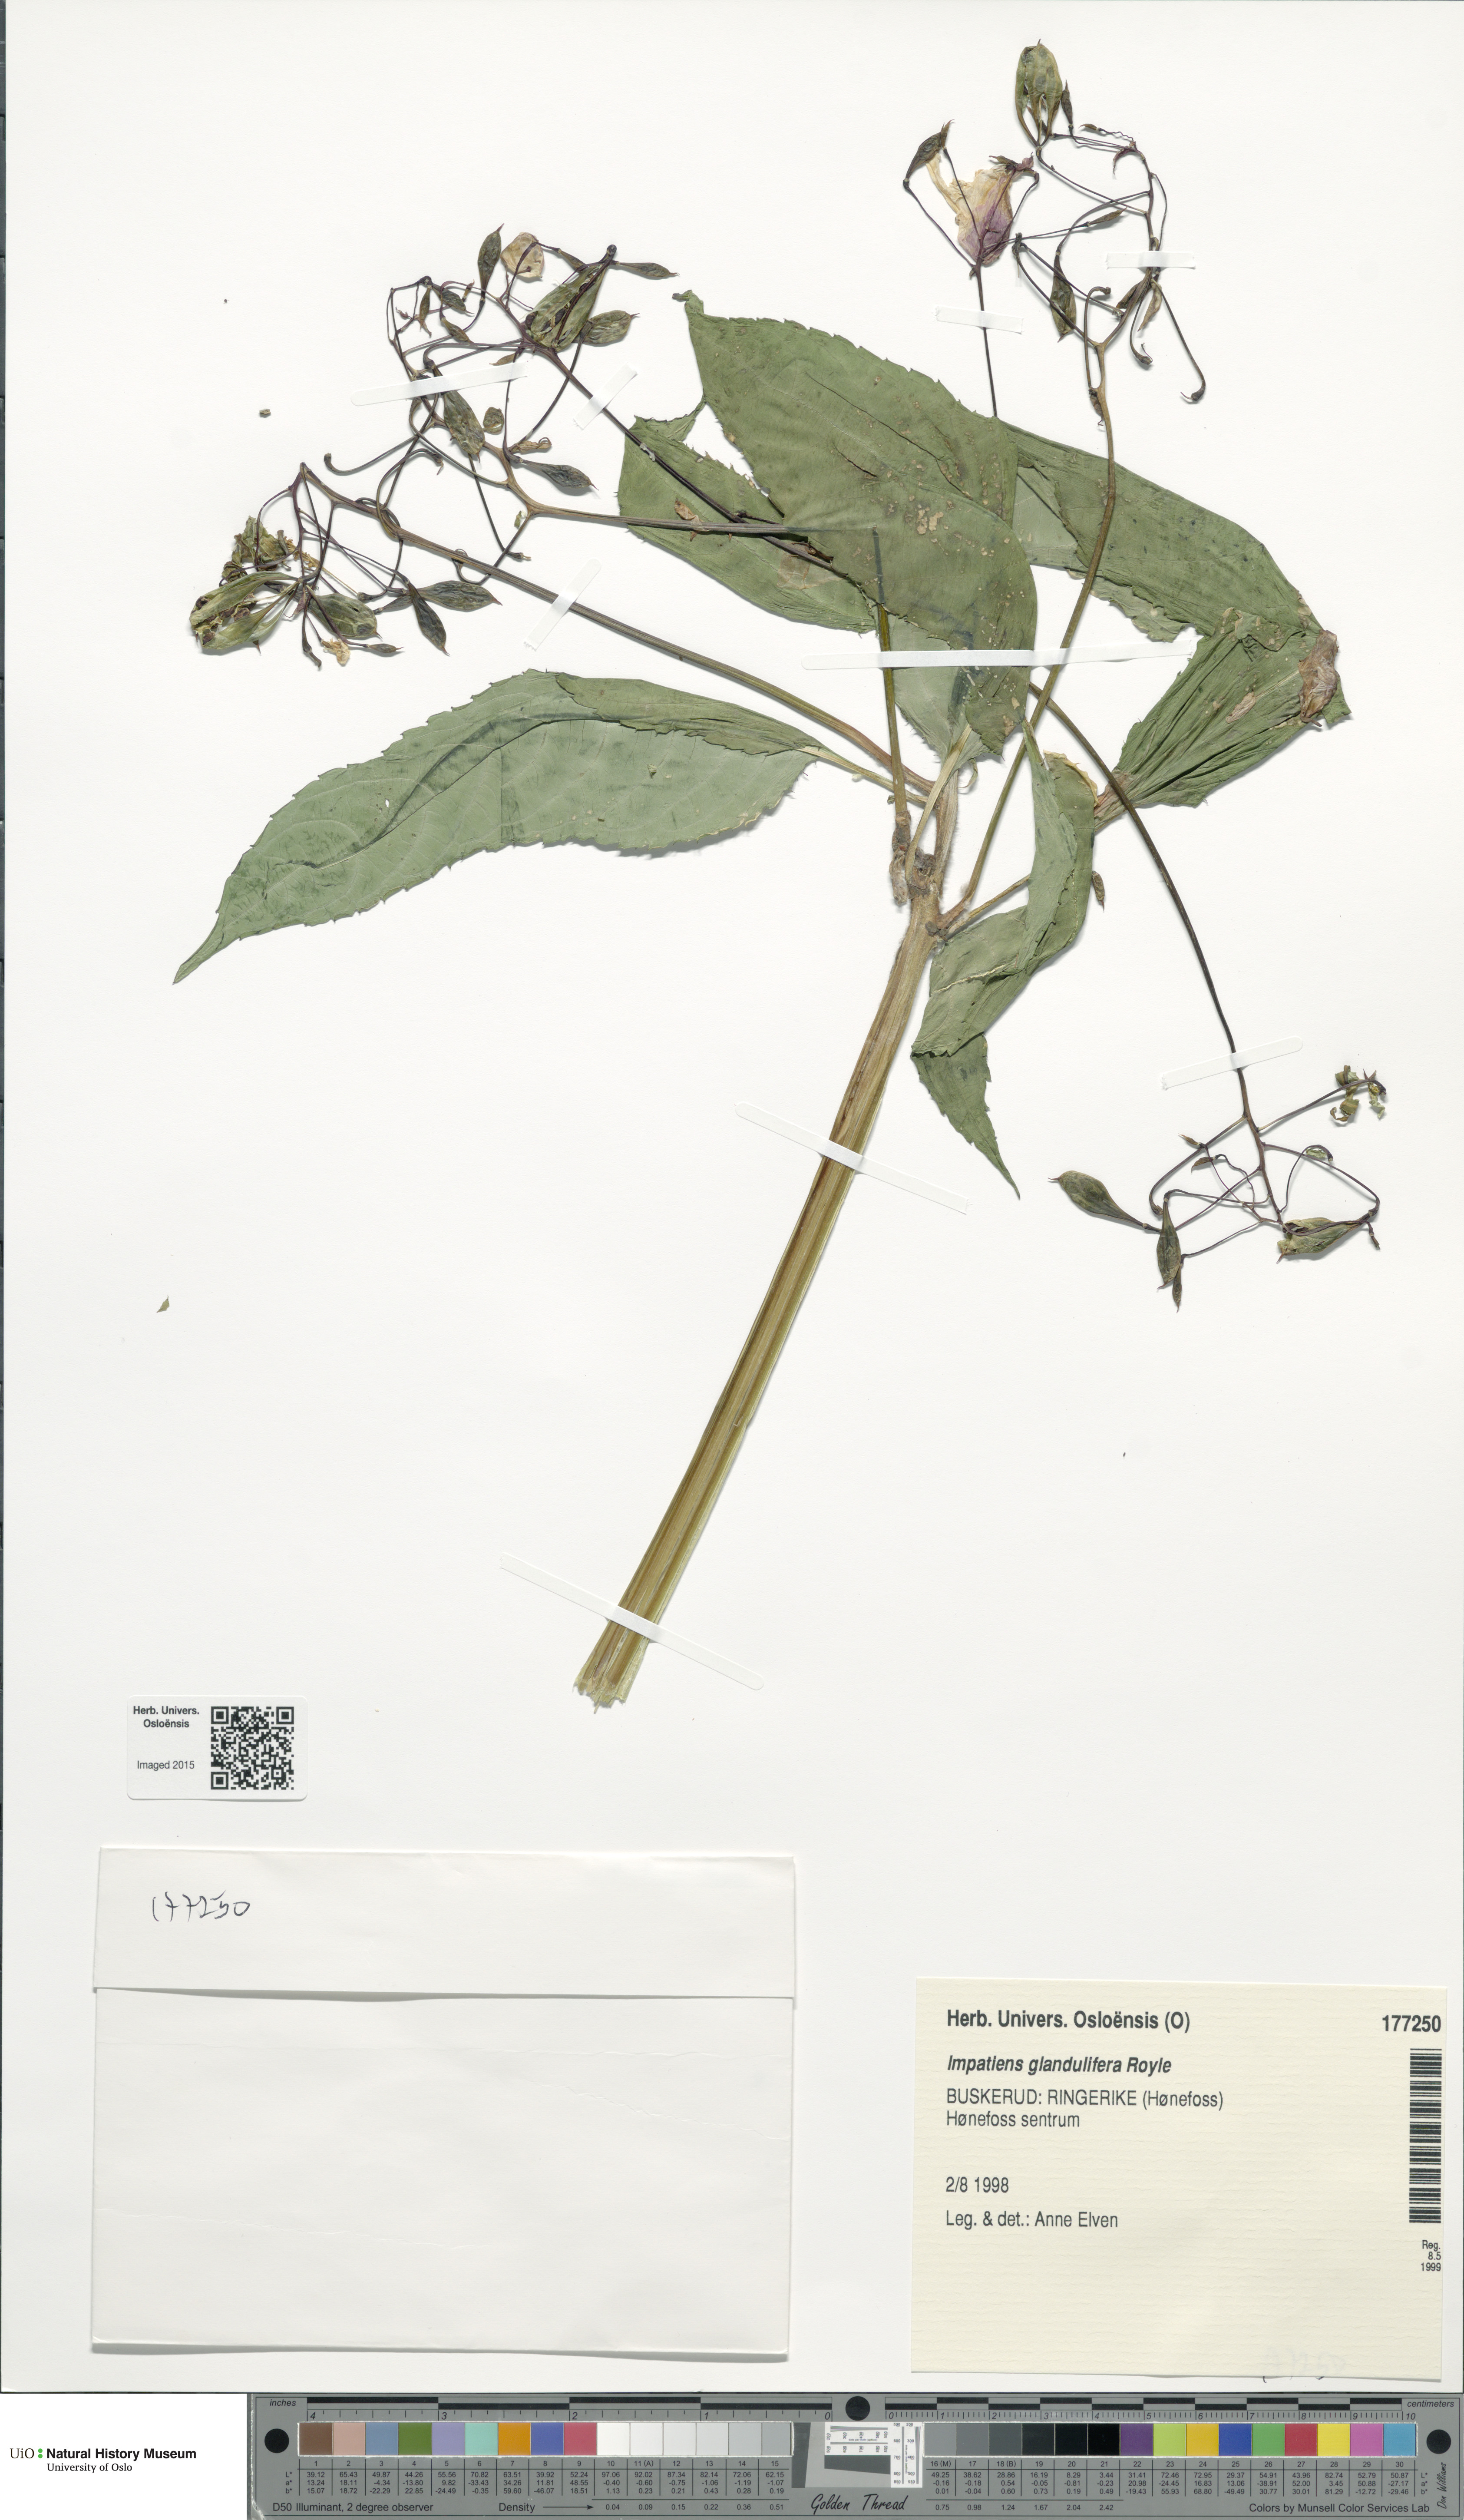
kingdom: Plantae
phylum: Tracheophyta
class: Magnoliopsida
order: Ericales
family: Balsaminaceae
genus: Impatiens
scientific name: Impatiens glandulifera
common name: Himalayan balsam
